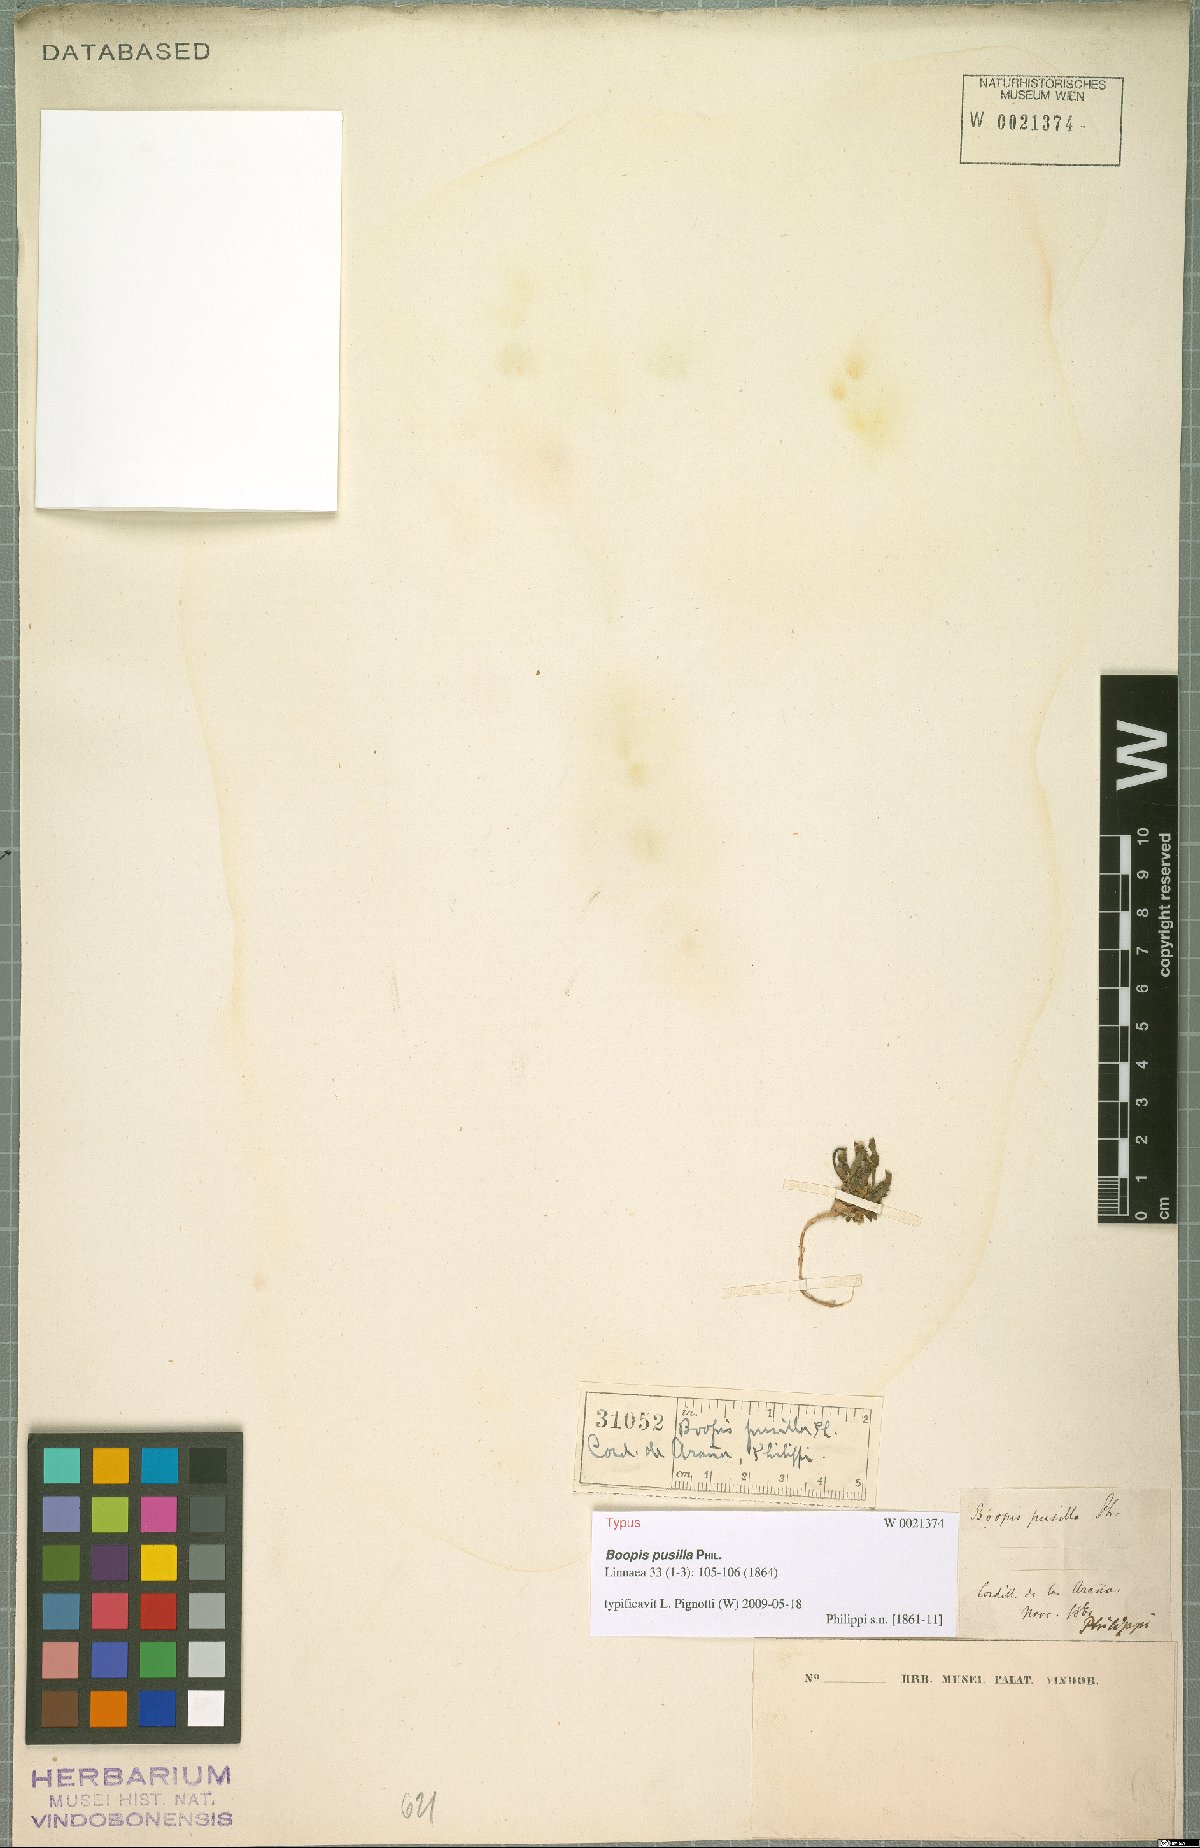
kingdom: Plantae
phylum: Tracheophyta
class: Magnoliopsida
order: Asterales
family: Calyceraceae
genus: Leucocera
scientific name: Leucocera pusilla
